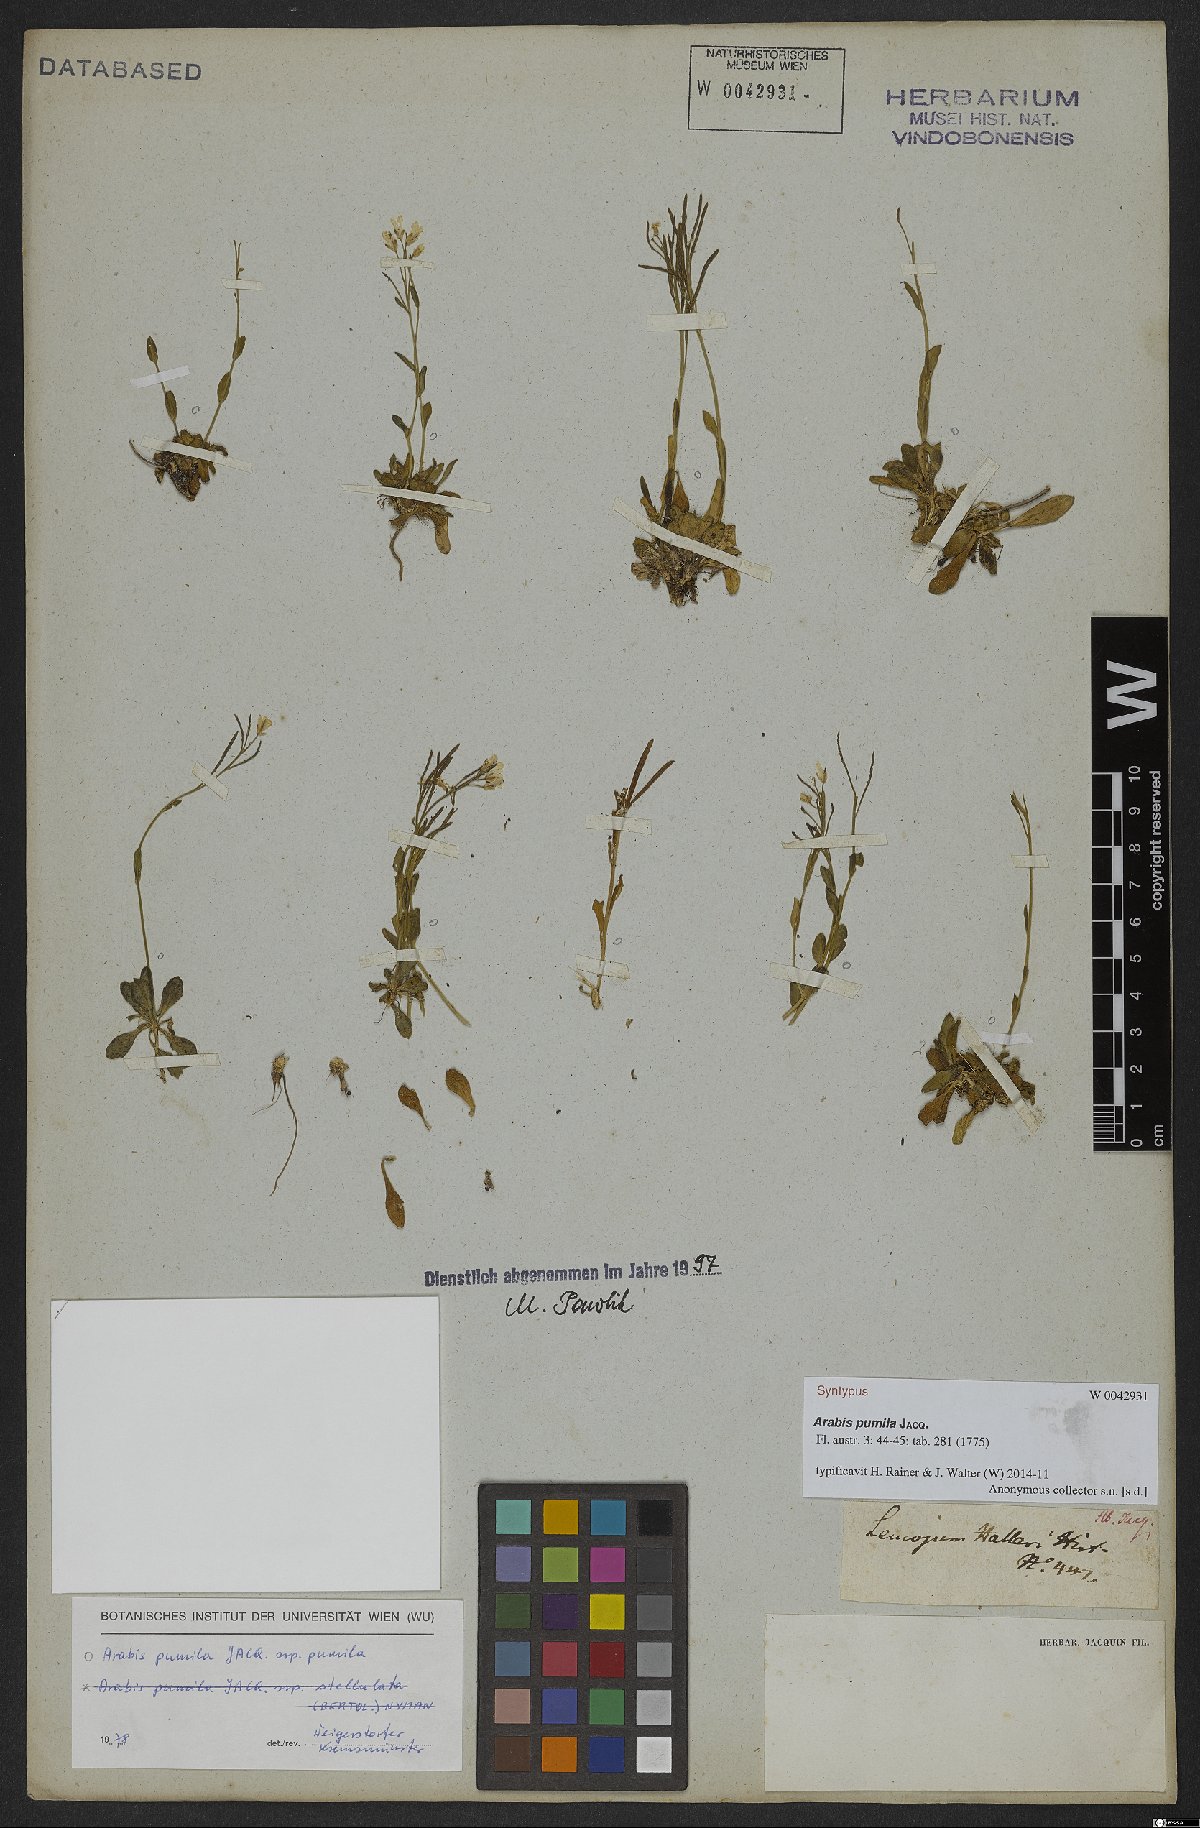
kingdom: Plantae
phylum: Tracheophyta
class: Magnoliopsida
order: Brassicales
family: Brassicaceae
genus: Arabis
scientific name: Arabis pumila
